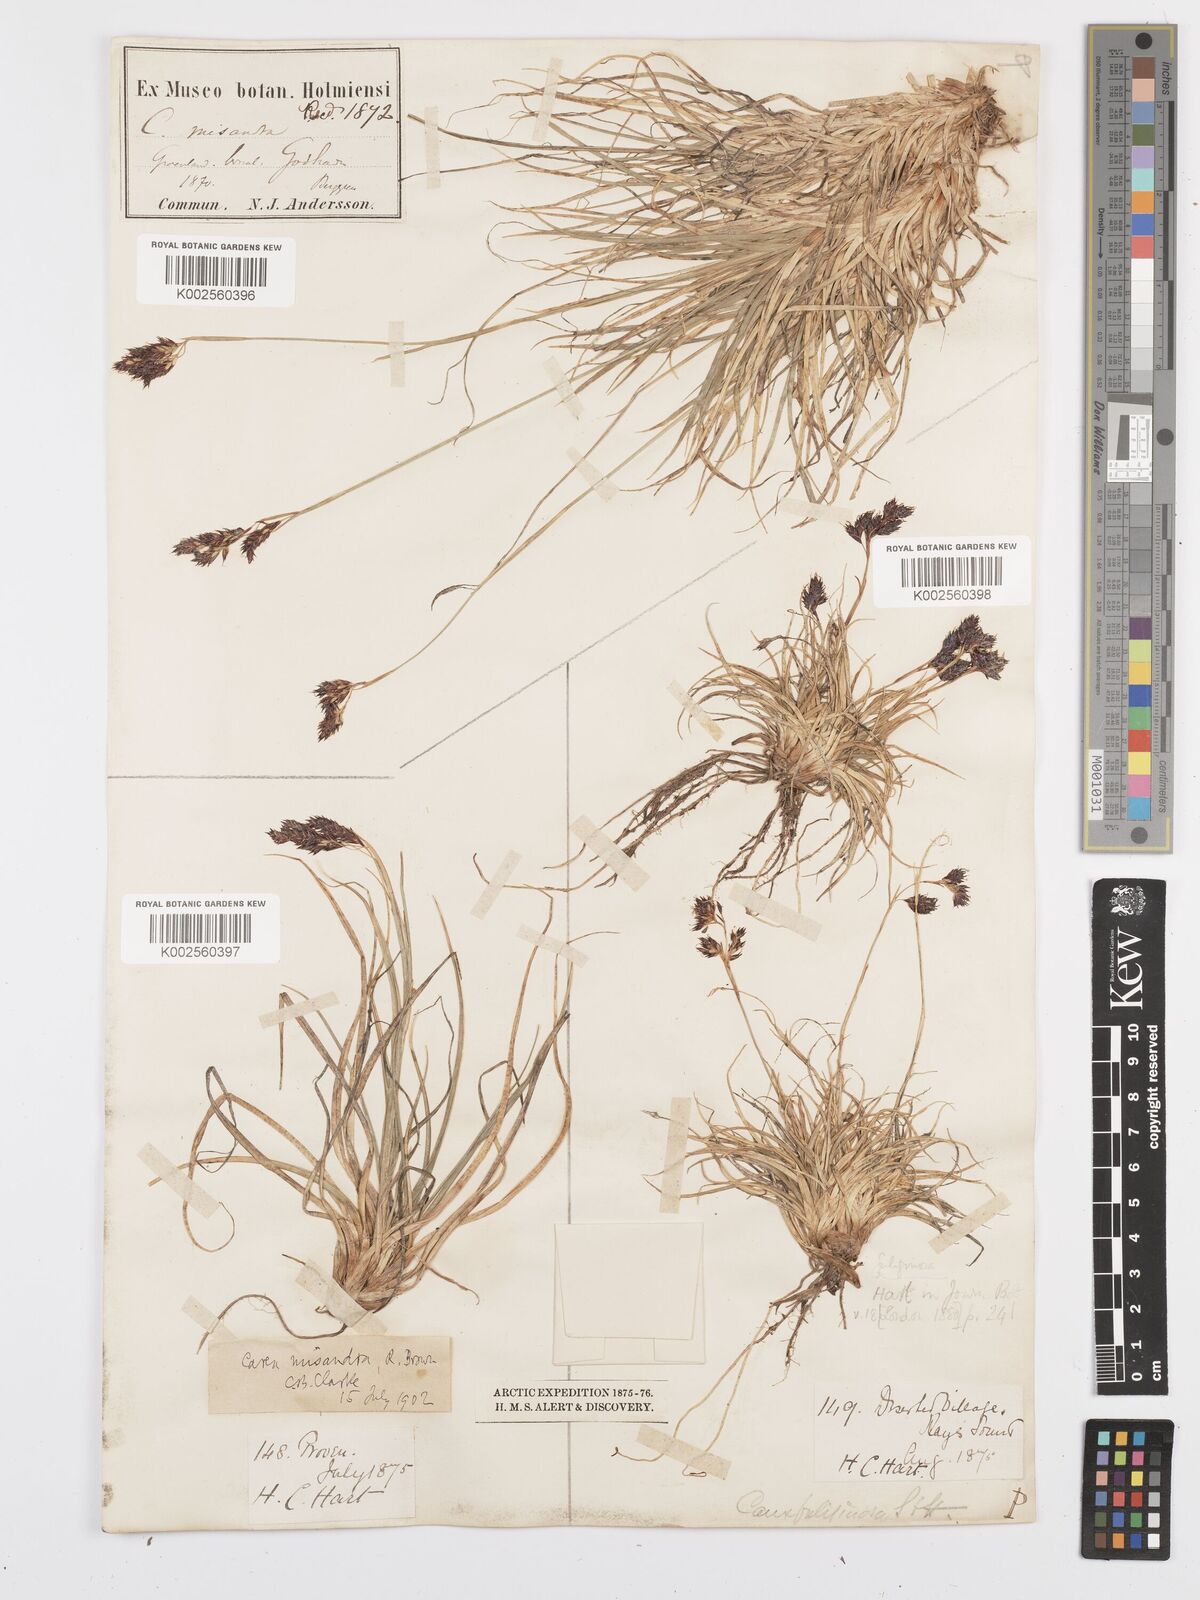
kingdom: Plantae
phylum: Tracheophyta
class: Liliopsida
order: Poales
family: Cyperaceae
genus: Carex
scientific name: Carex fuliginosa
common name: Few-flowered sedge
